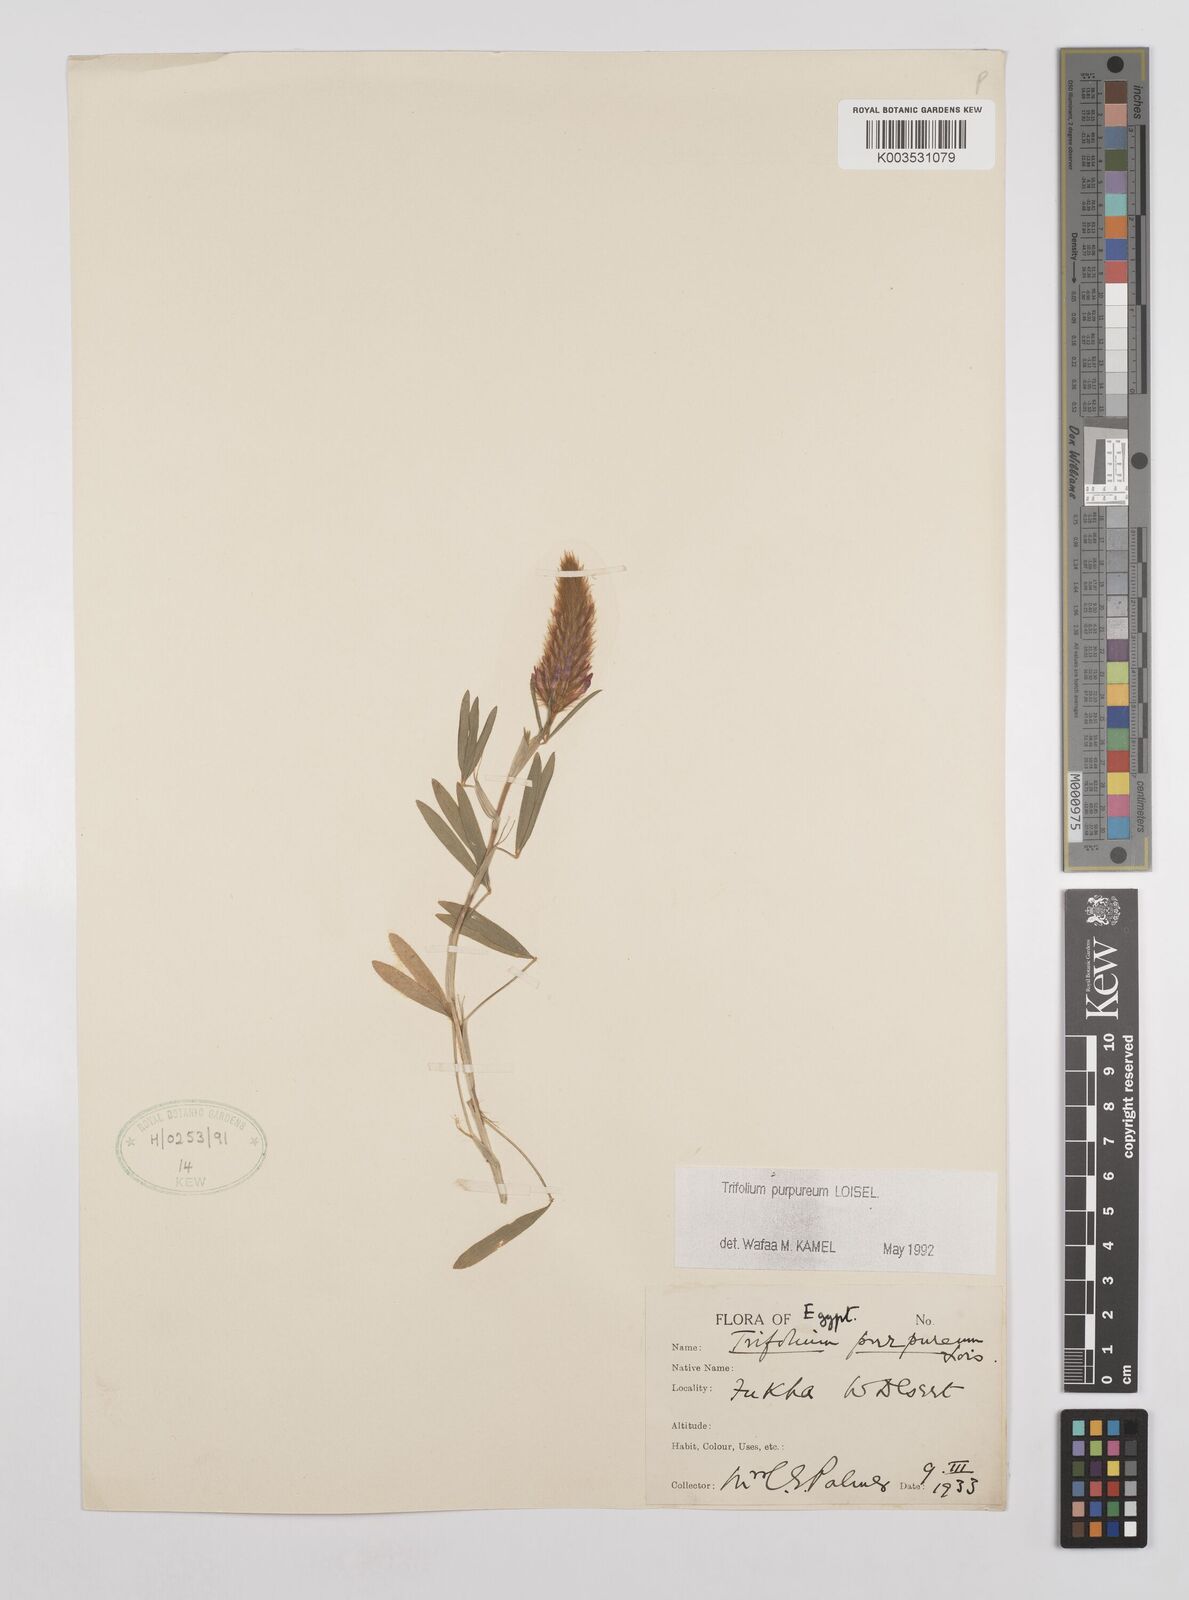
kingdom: Plantae
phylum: Tracheophyta
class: Magnoliopsida
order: Fabales
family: Fabaceae
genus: Trifolium
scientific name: Trifolium purpureum
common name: Purple clover
